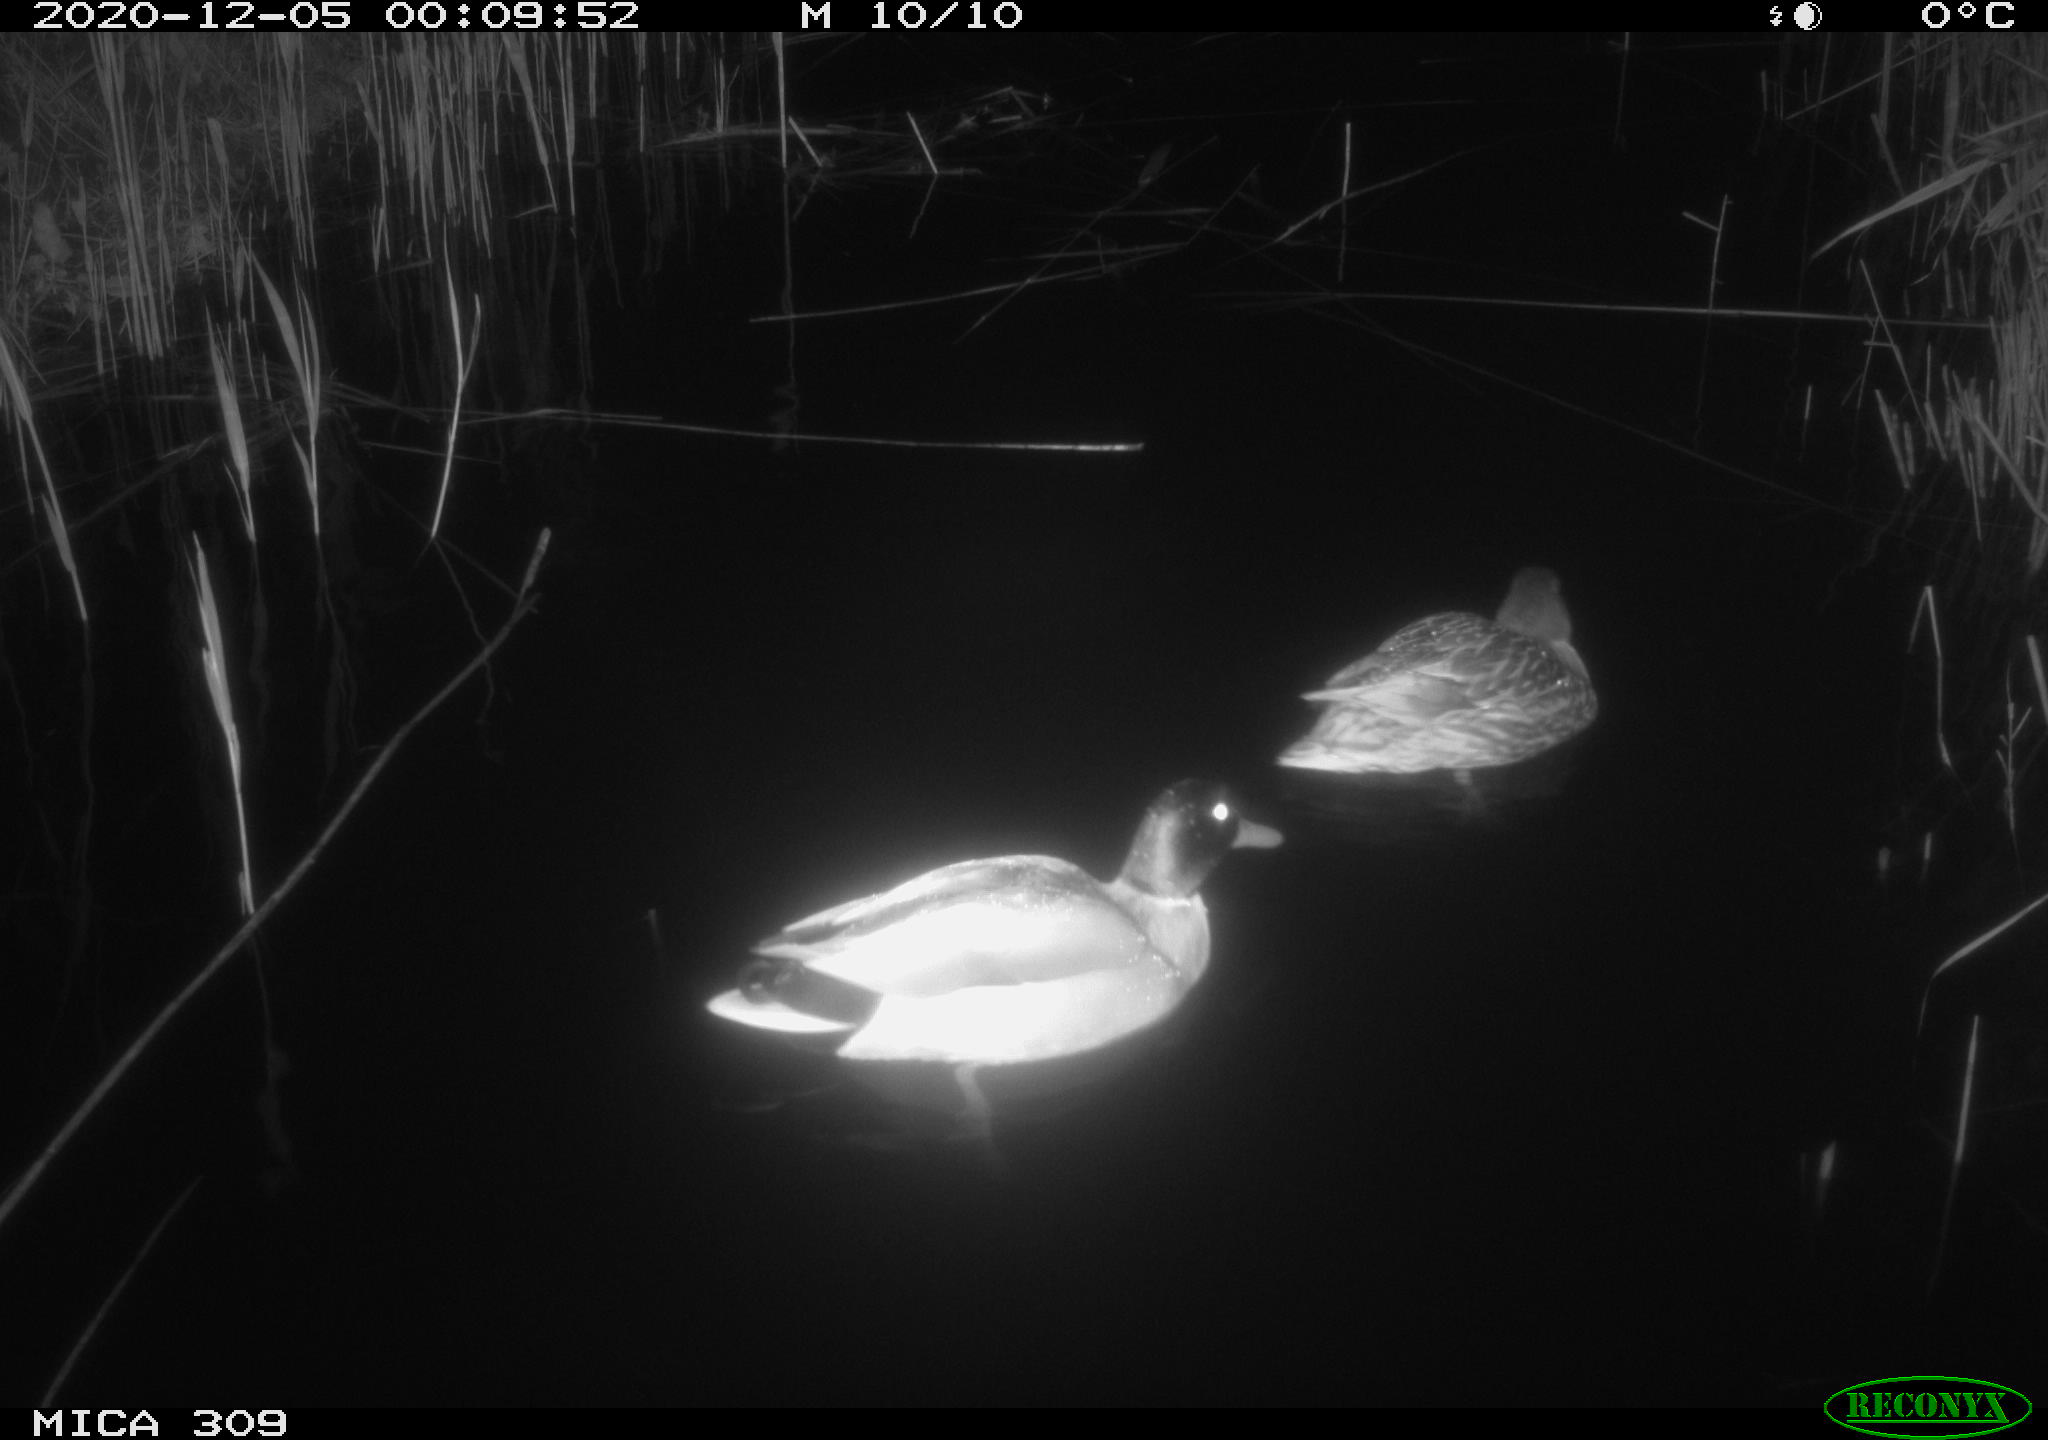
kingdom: Animalia
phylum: Chordata
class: Aves
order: Anseriformes
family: Anatidae
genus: Anas
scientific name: Anas platyrhynchos
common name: Mallard
